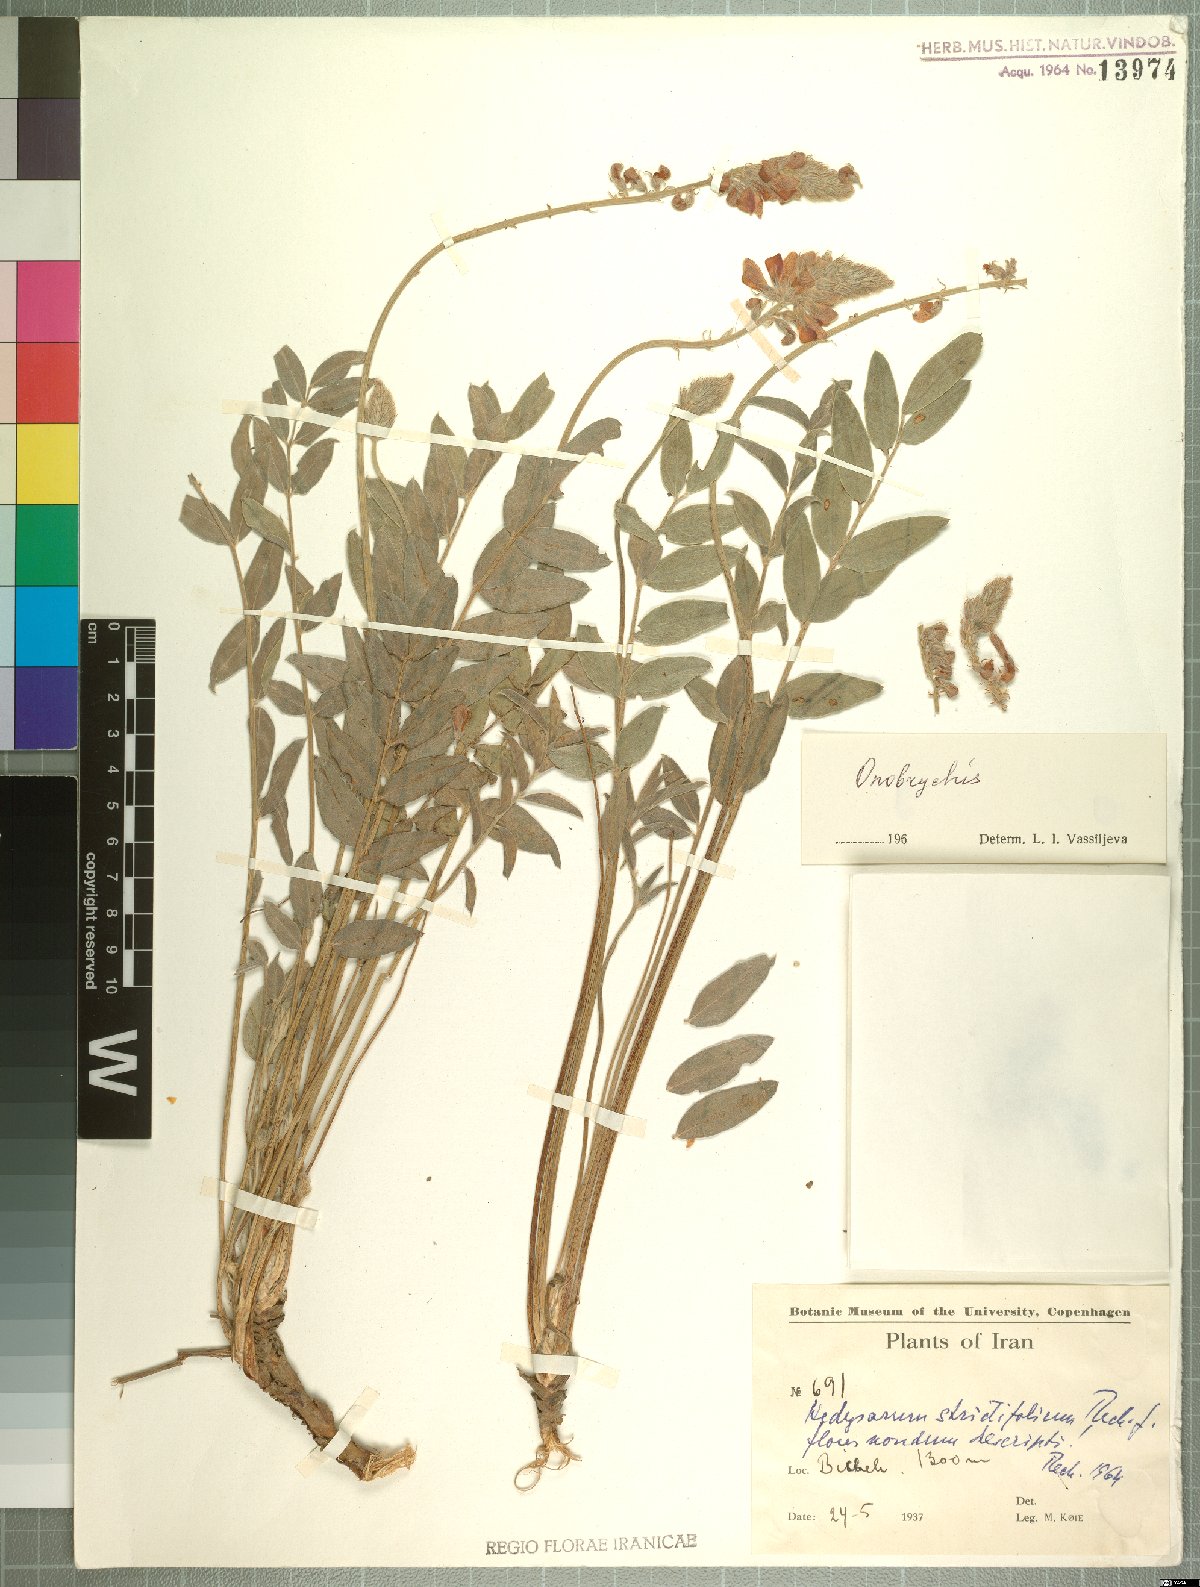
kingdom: Plantae
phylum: Tracheophyta
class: Magnoliopsida
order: Fabales
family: Fabaceae
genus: Onobrychis
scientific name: Onobrychis
